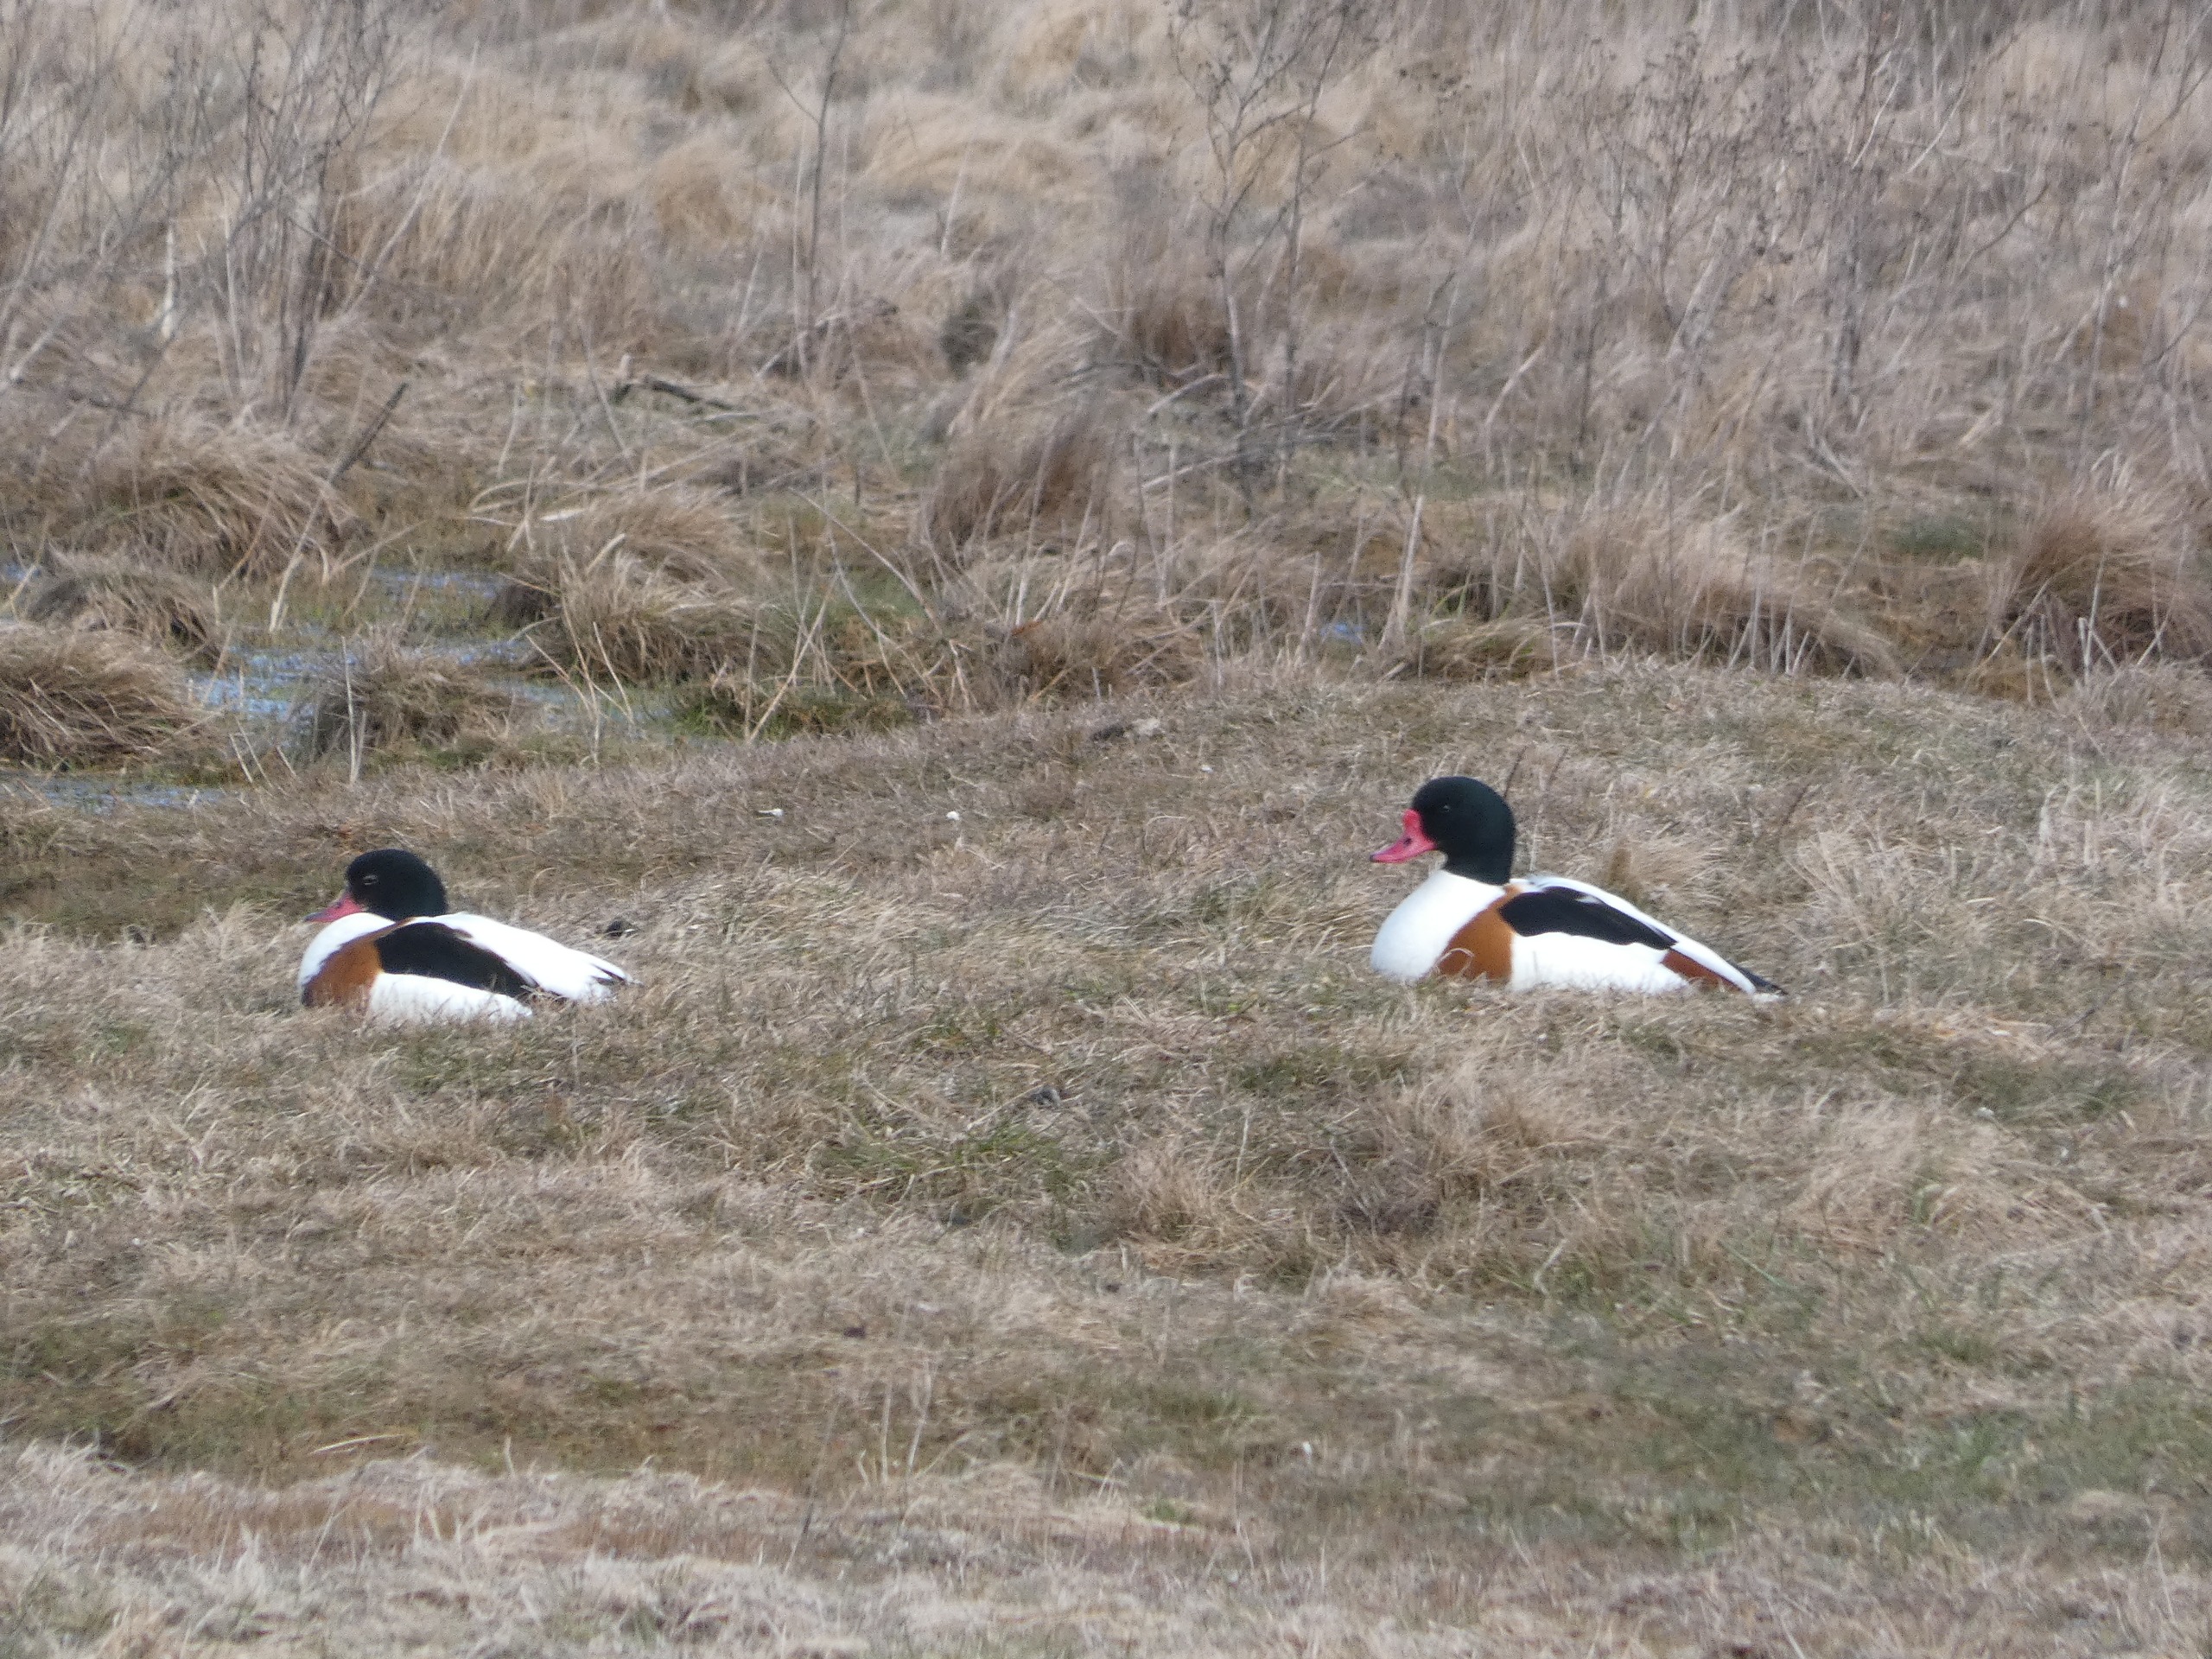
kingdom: Animalia
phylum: Chordata
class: Aves
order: Anseriformes
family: Anatidae
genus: Tadorna
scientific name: Tadorna tadorna
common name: Gravand
